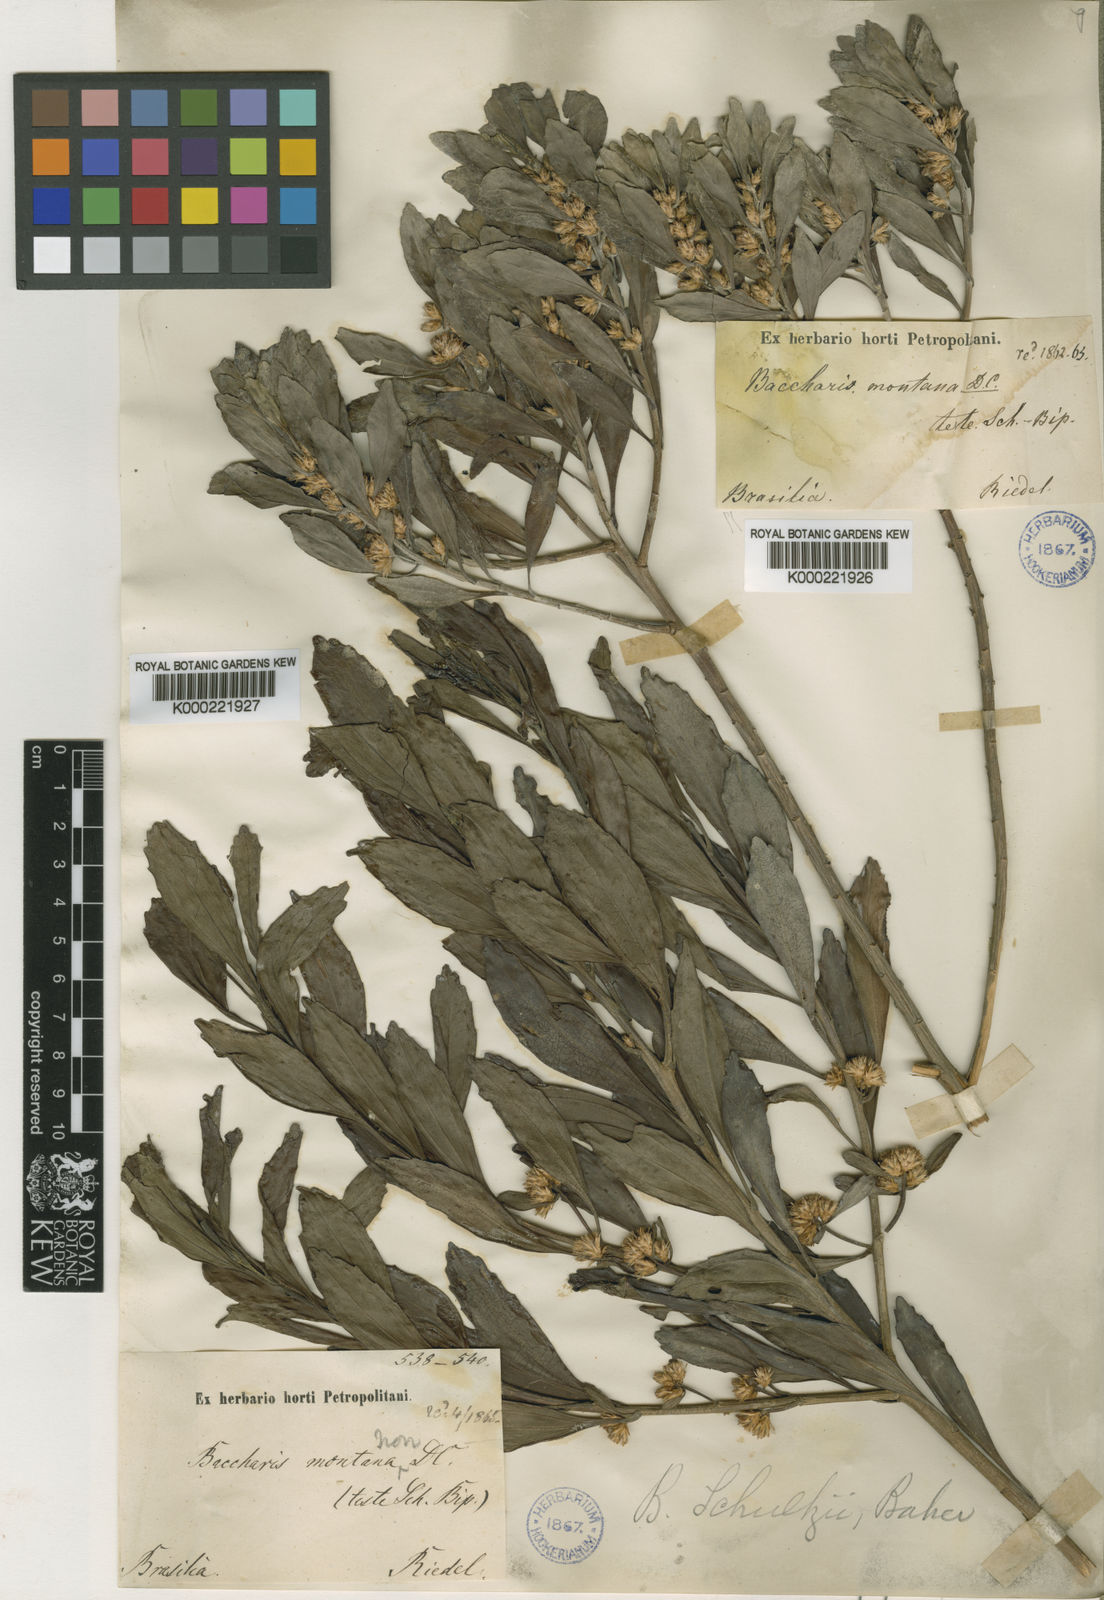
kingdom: Plantae
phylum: Tracheophyta
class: Magnoliopsida
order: Asterales
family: Asteraceae
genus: Baccharis
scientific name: Baccharis lateralis
